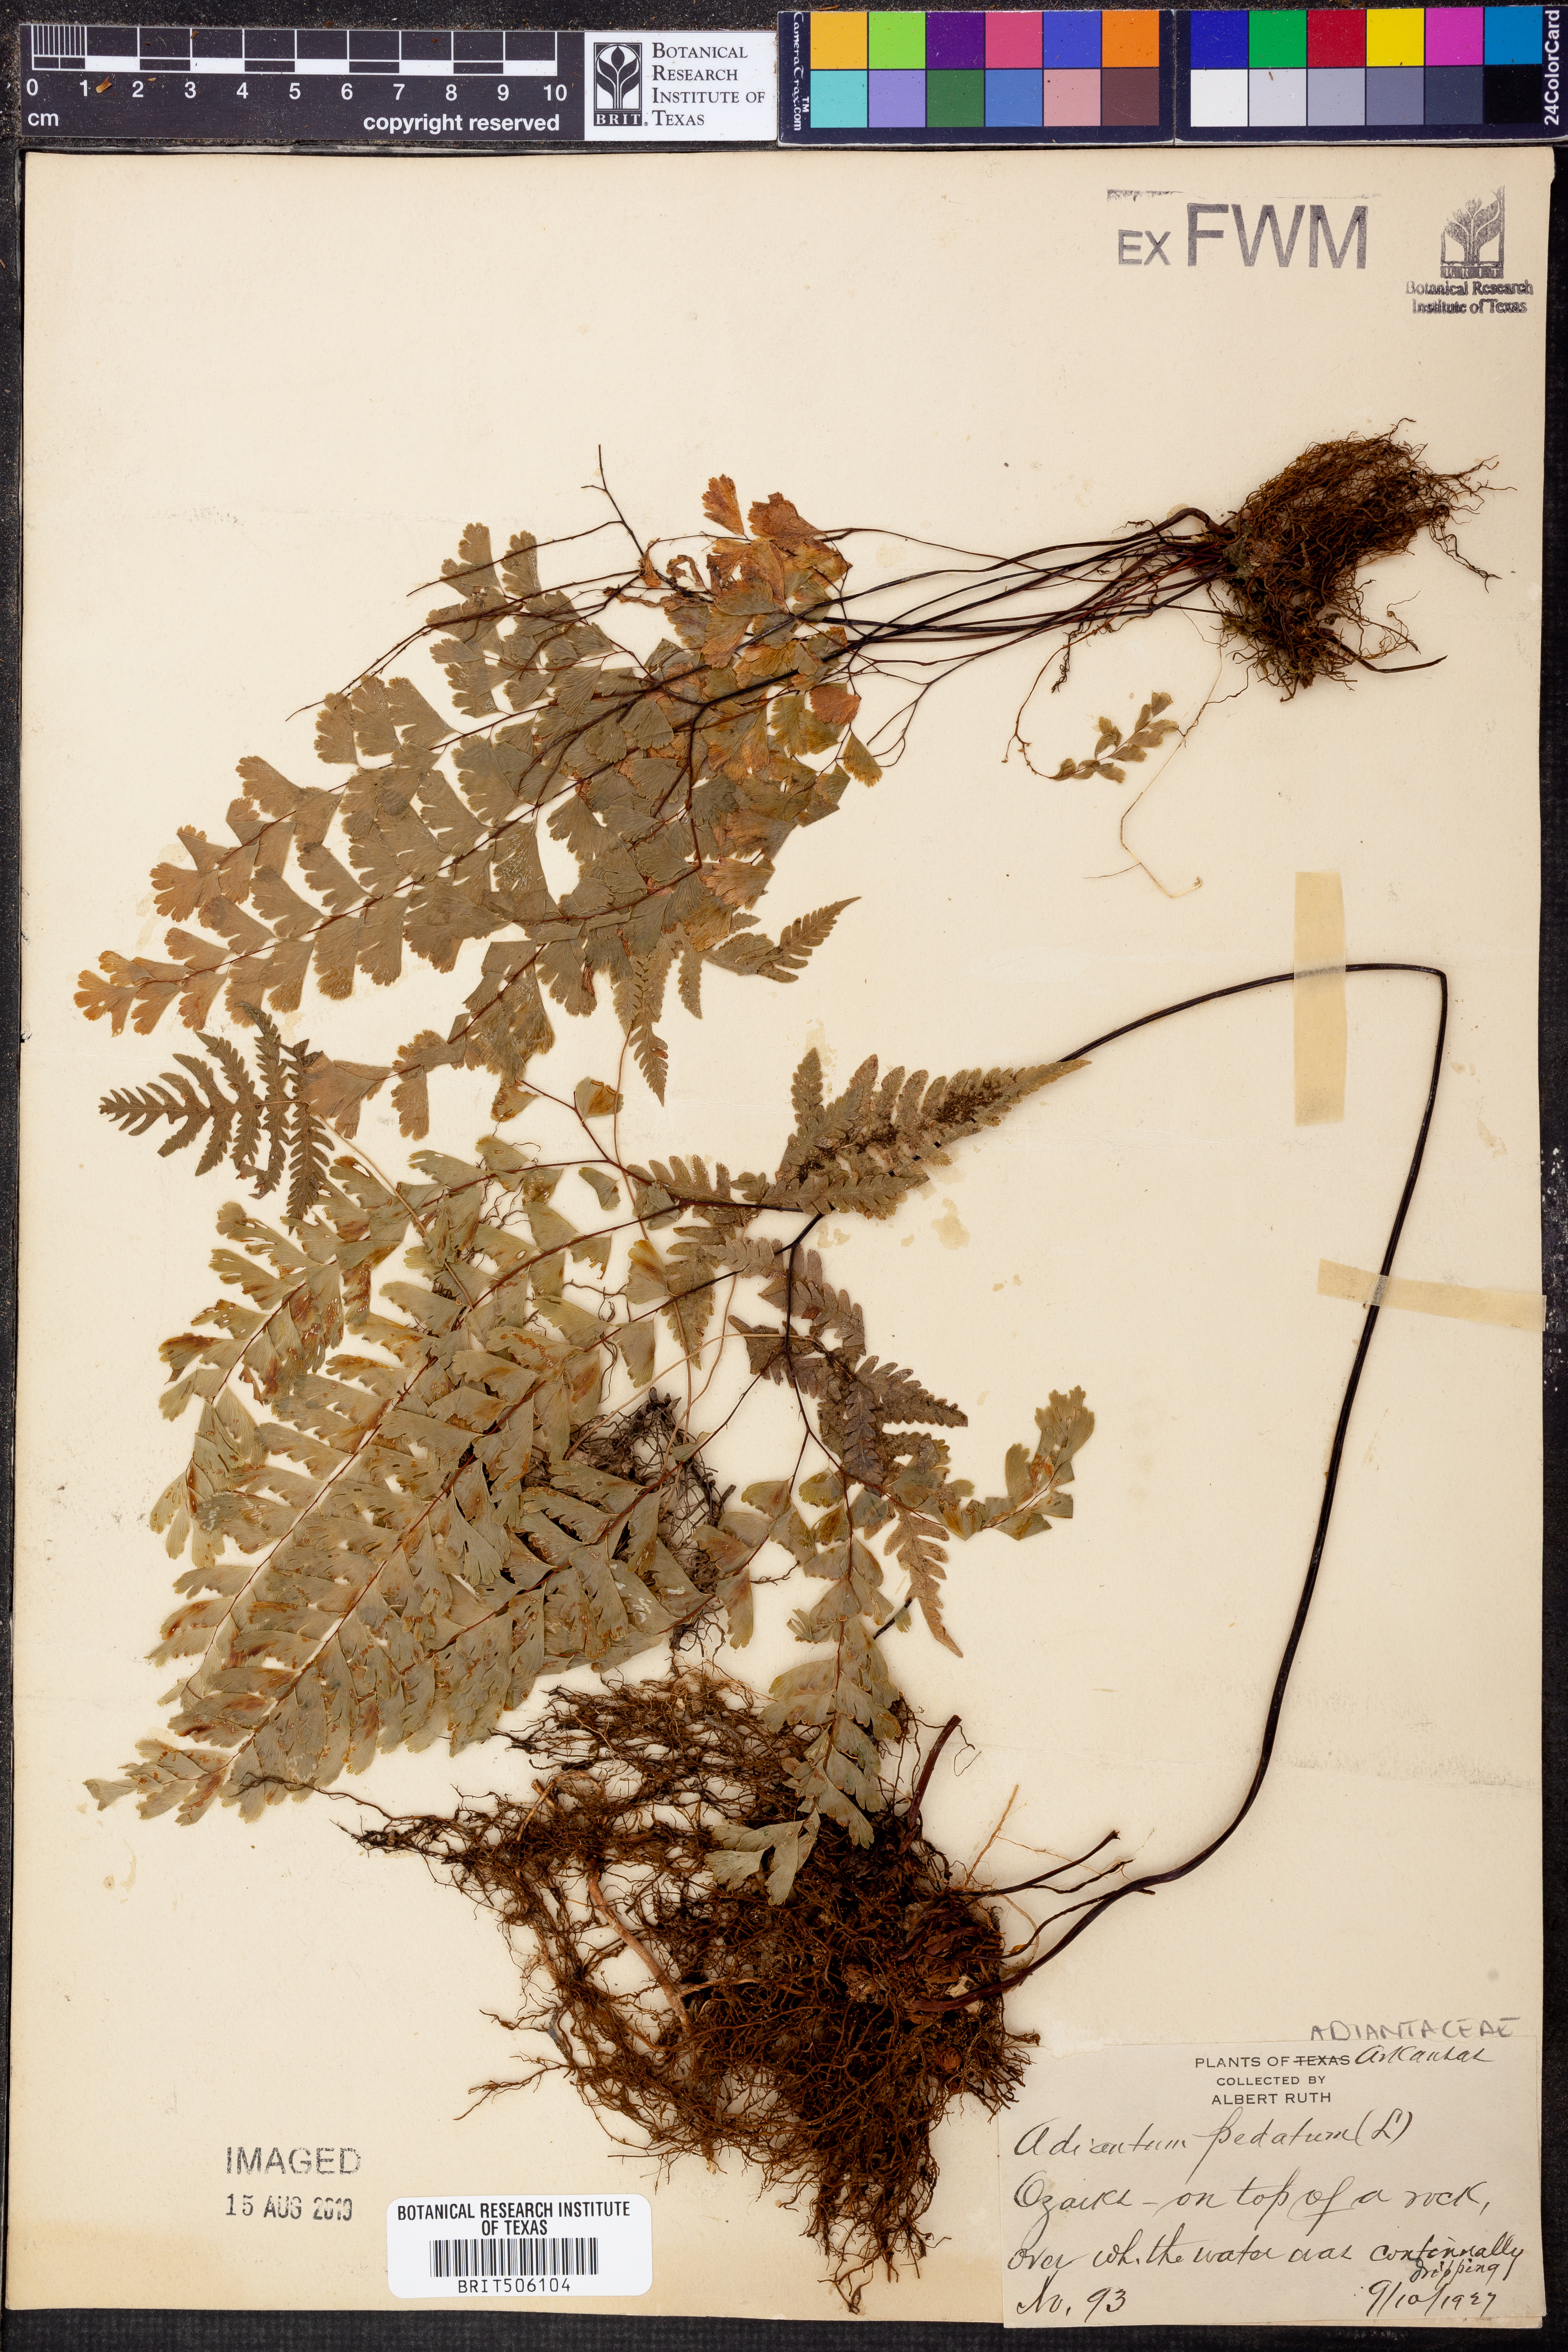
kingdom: Plantae
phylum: Tracheophyta
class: Polypodiopsida
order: Polypodiales
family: Pteridaceae
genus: Adiantum
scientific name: Adiantum pedatum
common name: Five-finger fern
